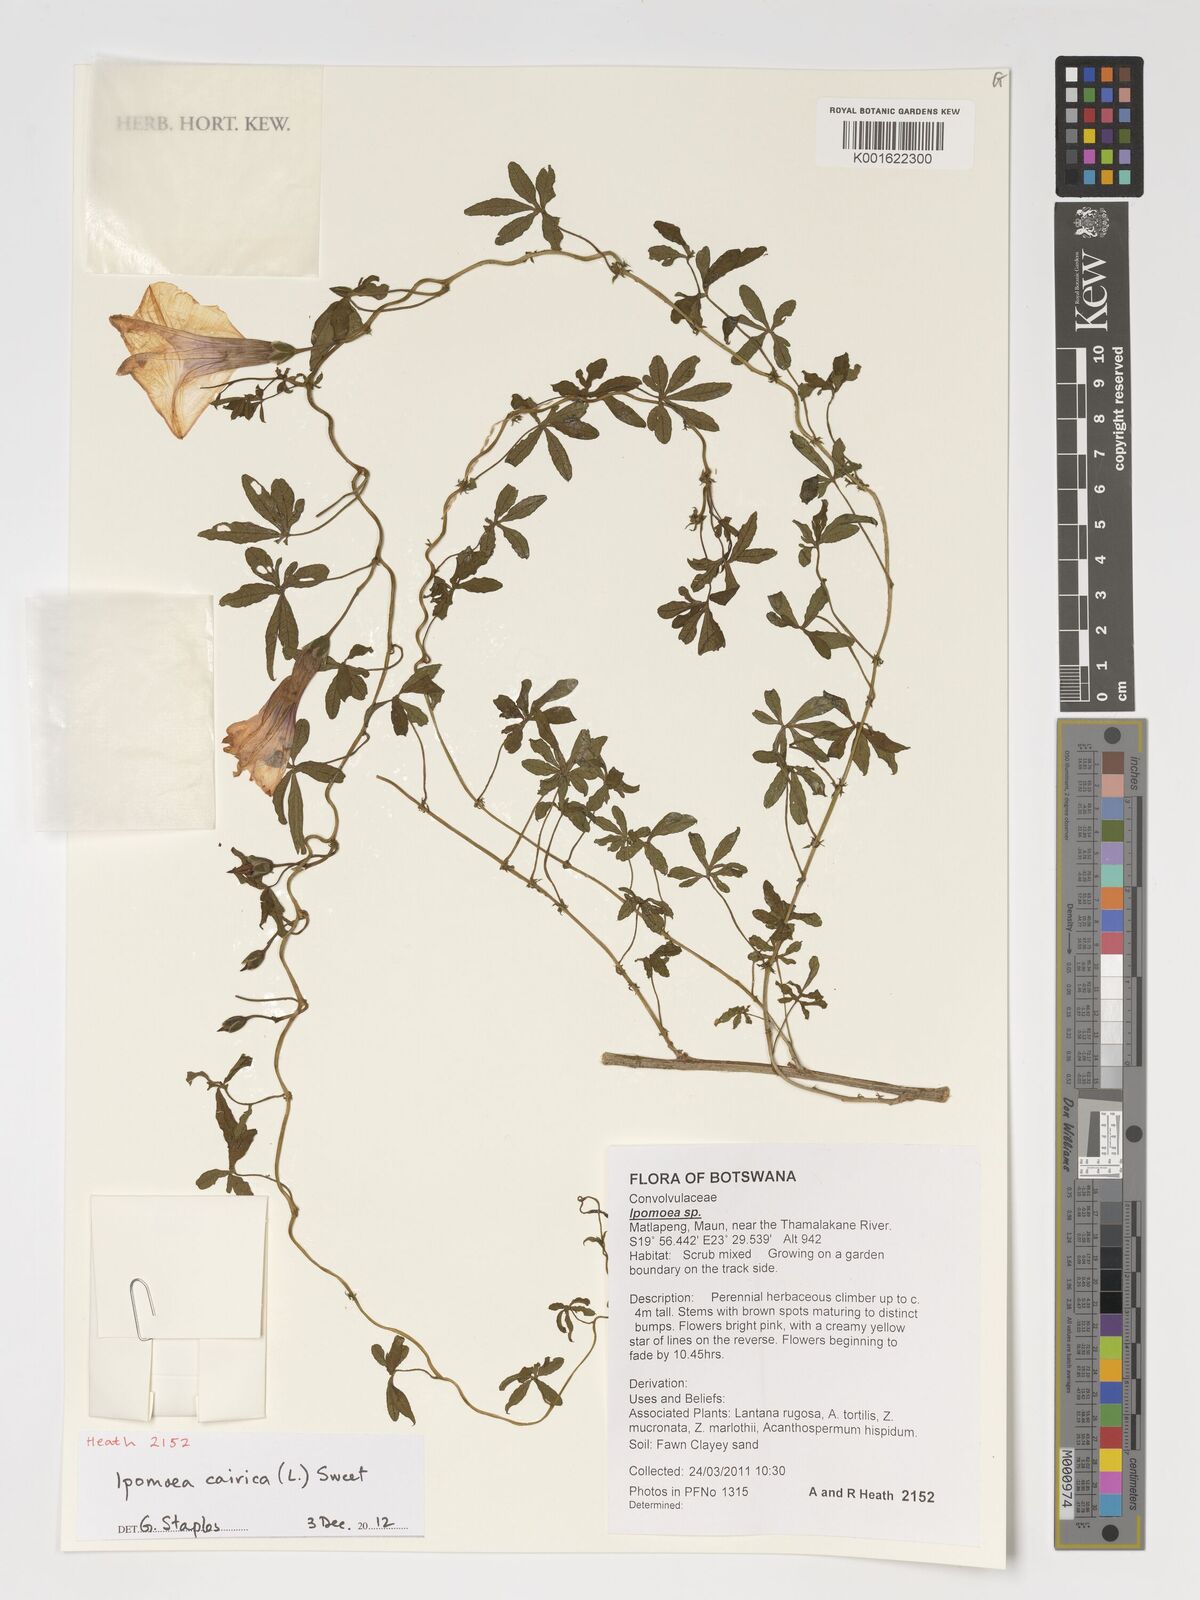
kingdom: Plantae
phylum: Tracheophyta
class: Magnoliopsida
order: Solanales
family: Convolvulaceae
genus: Ipomoea
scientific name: Ipomoea cairica
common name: Mile a minute vine
